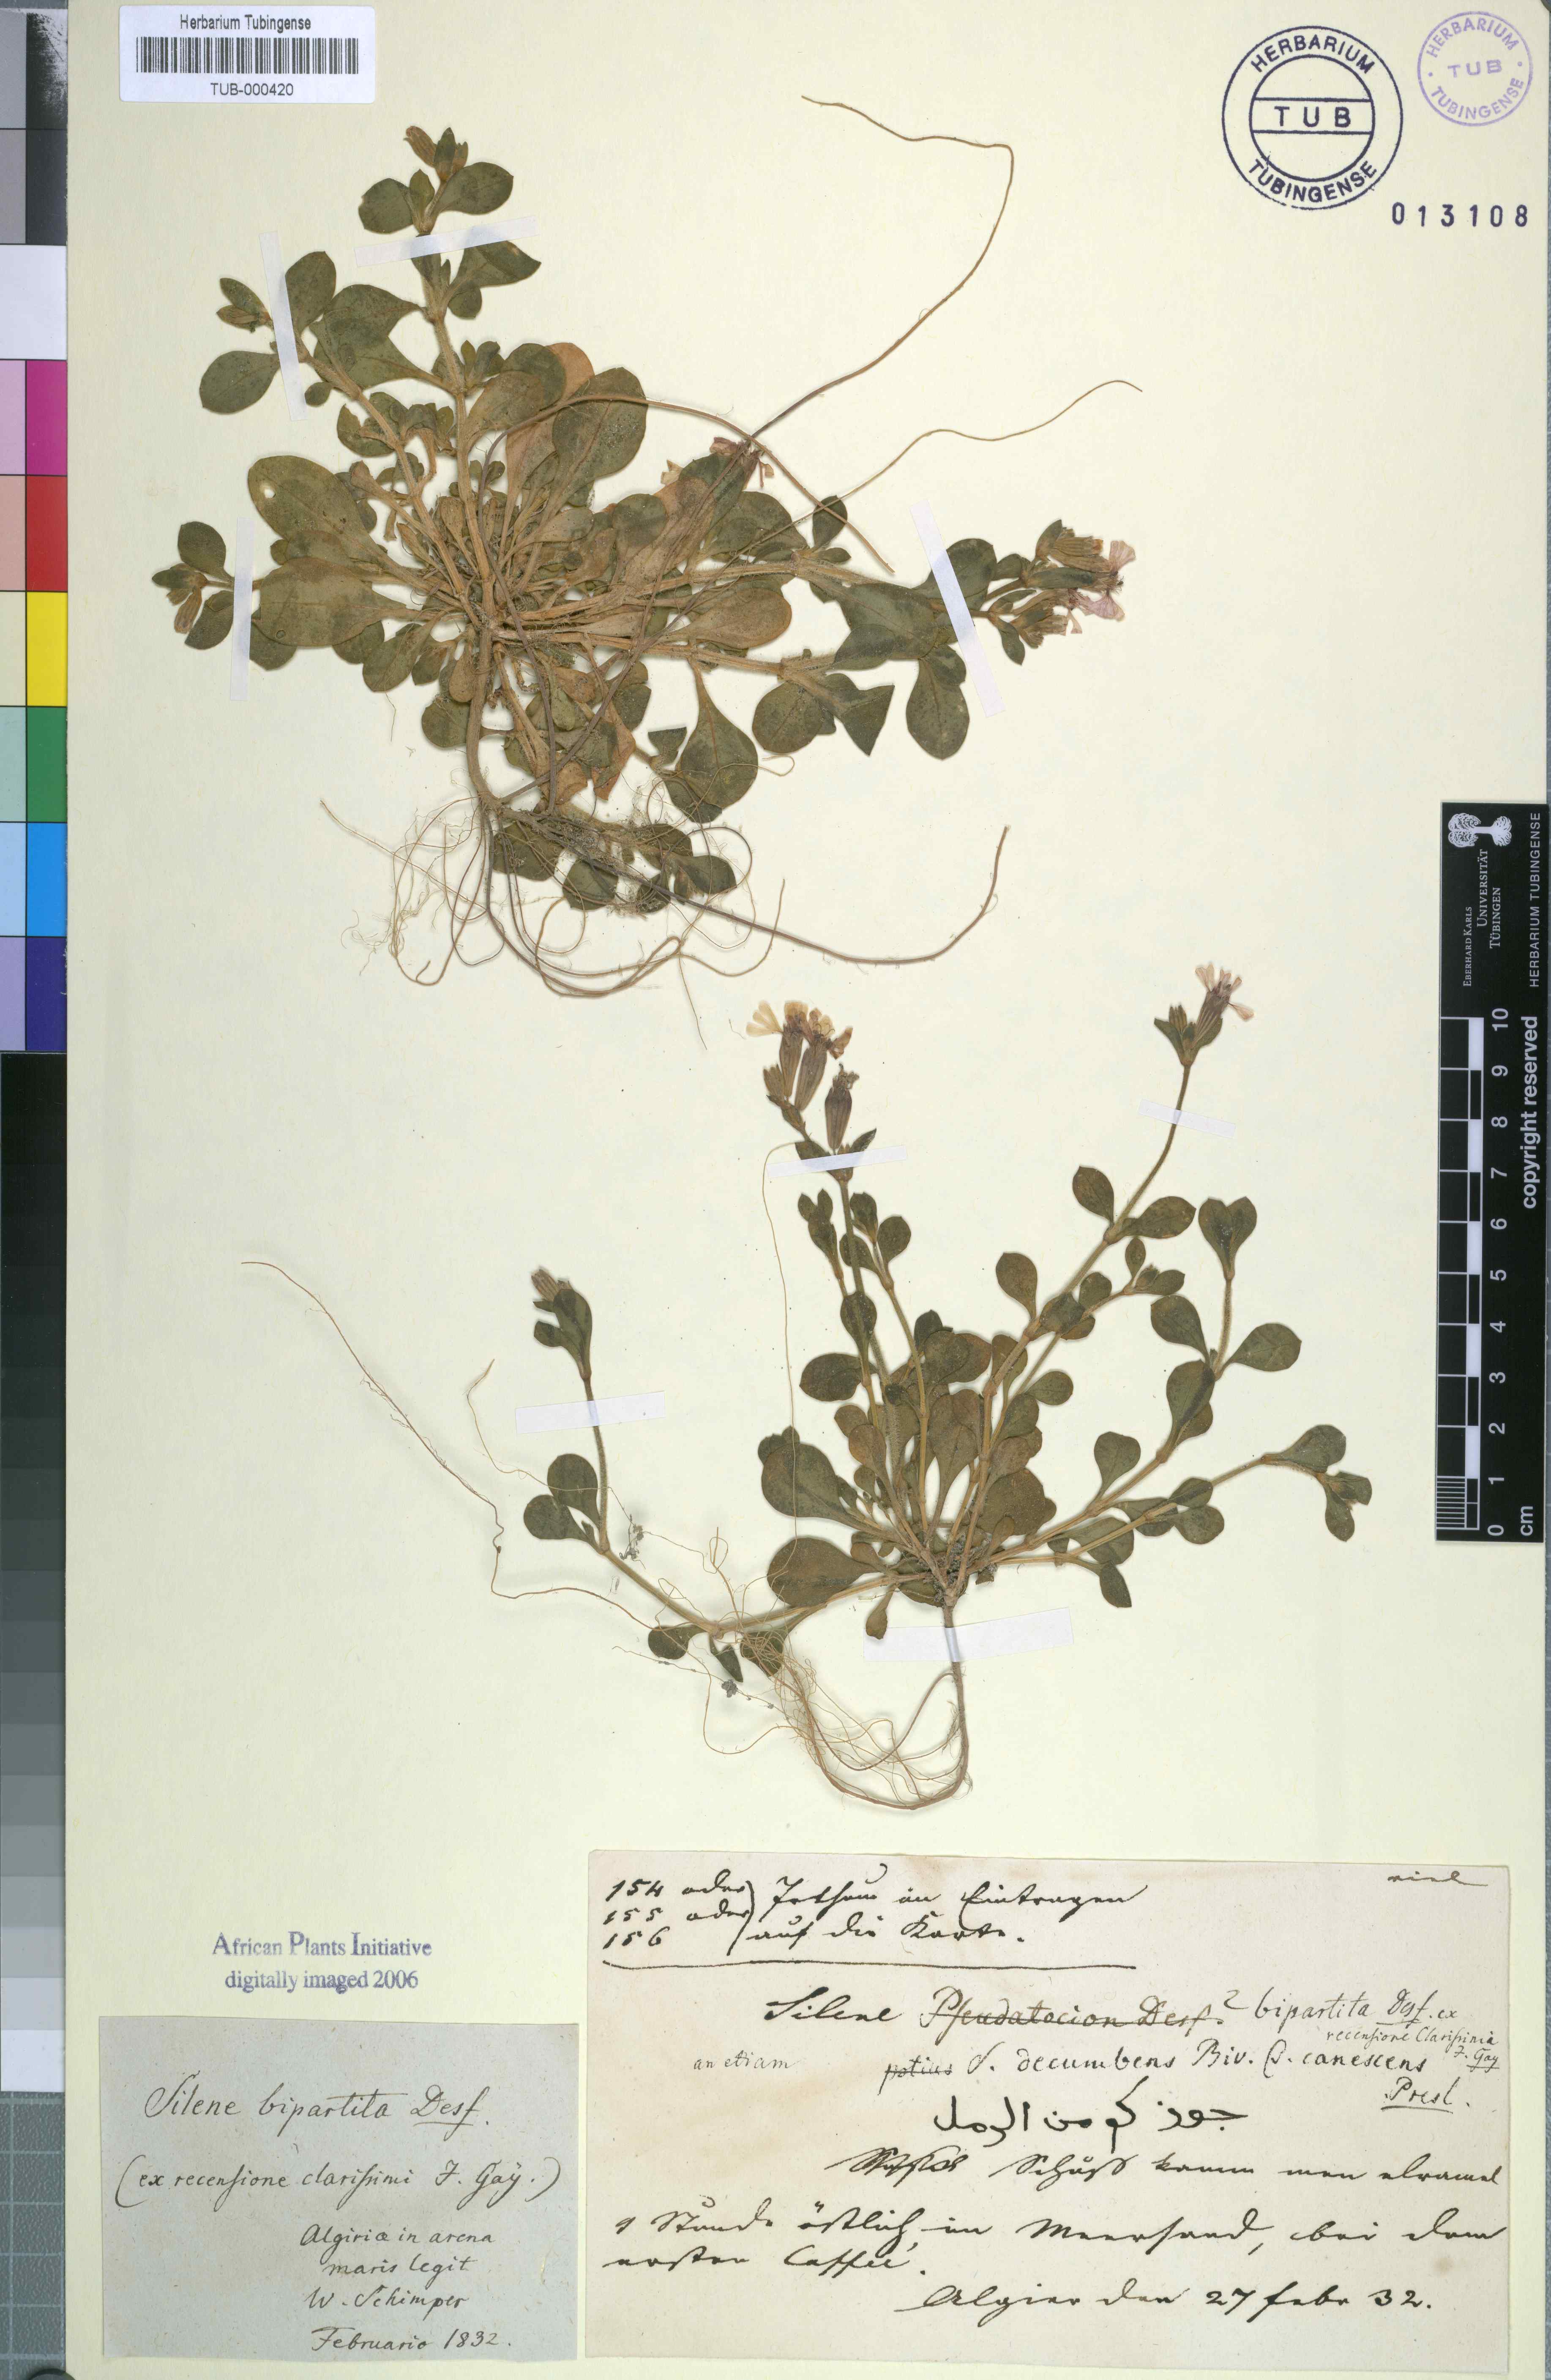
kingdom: Plantae
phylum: Tracheophyta
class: Magnoliopsida
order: Caryophyllales
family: Caryophyllaceae
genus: Silene
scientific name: Silene colorata
